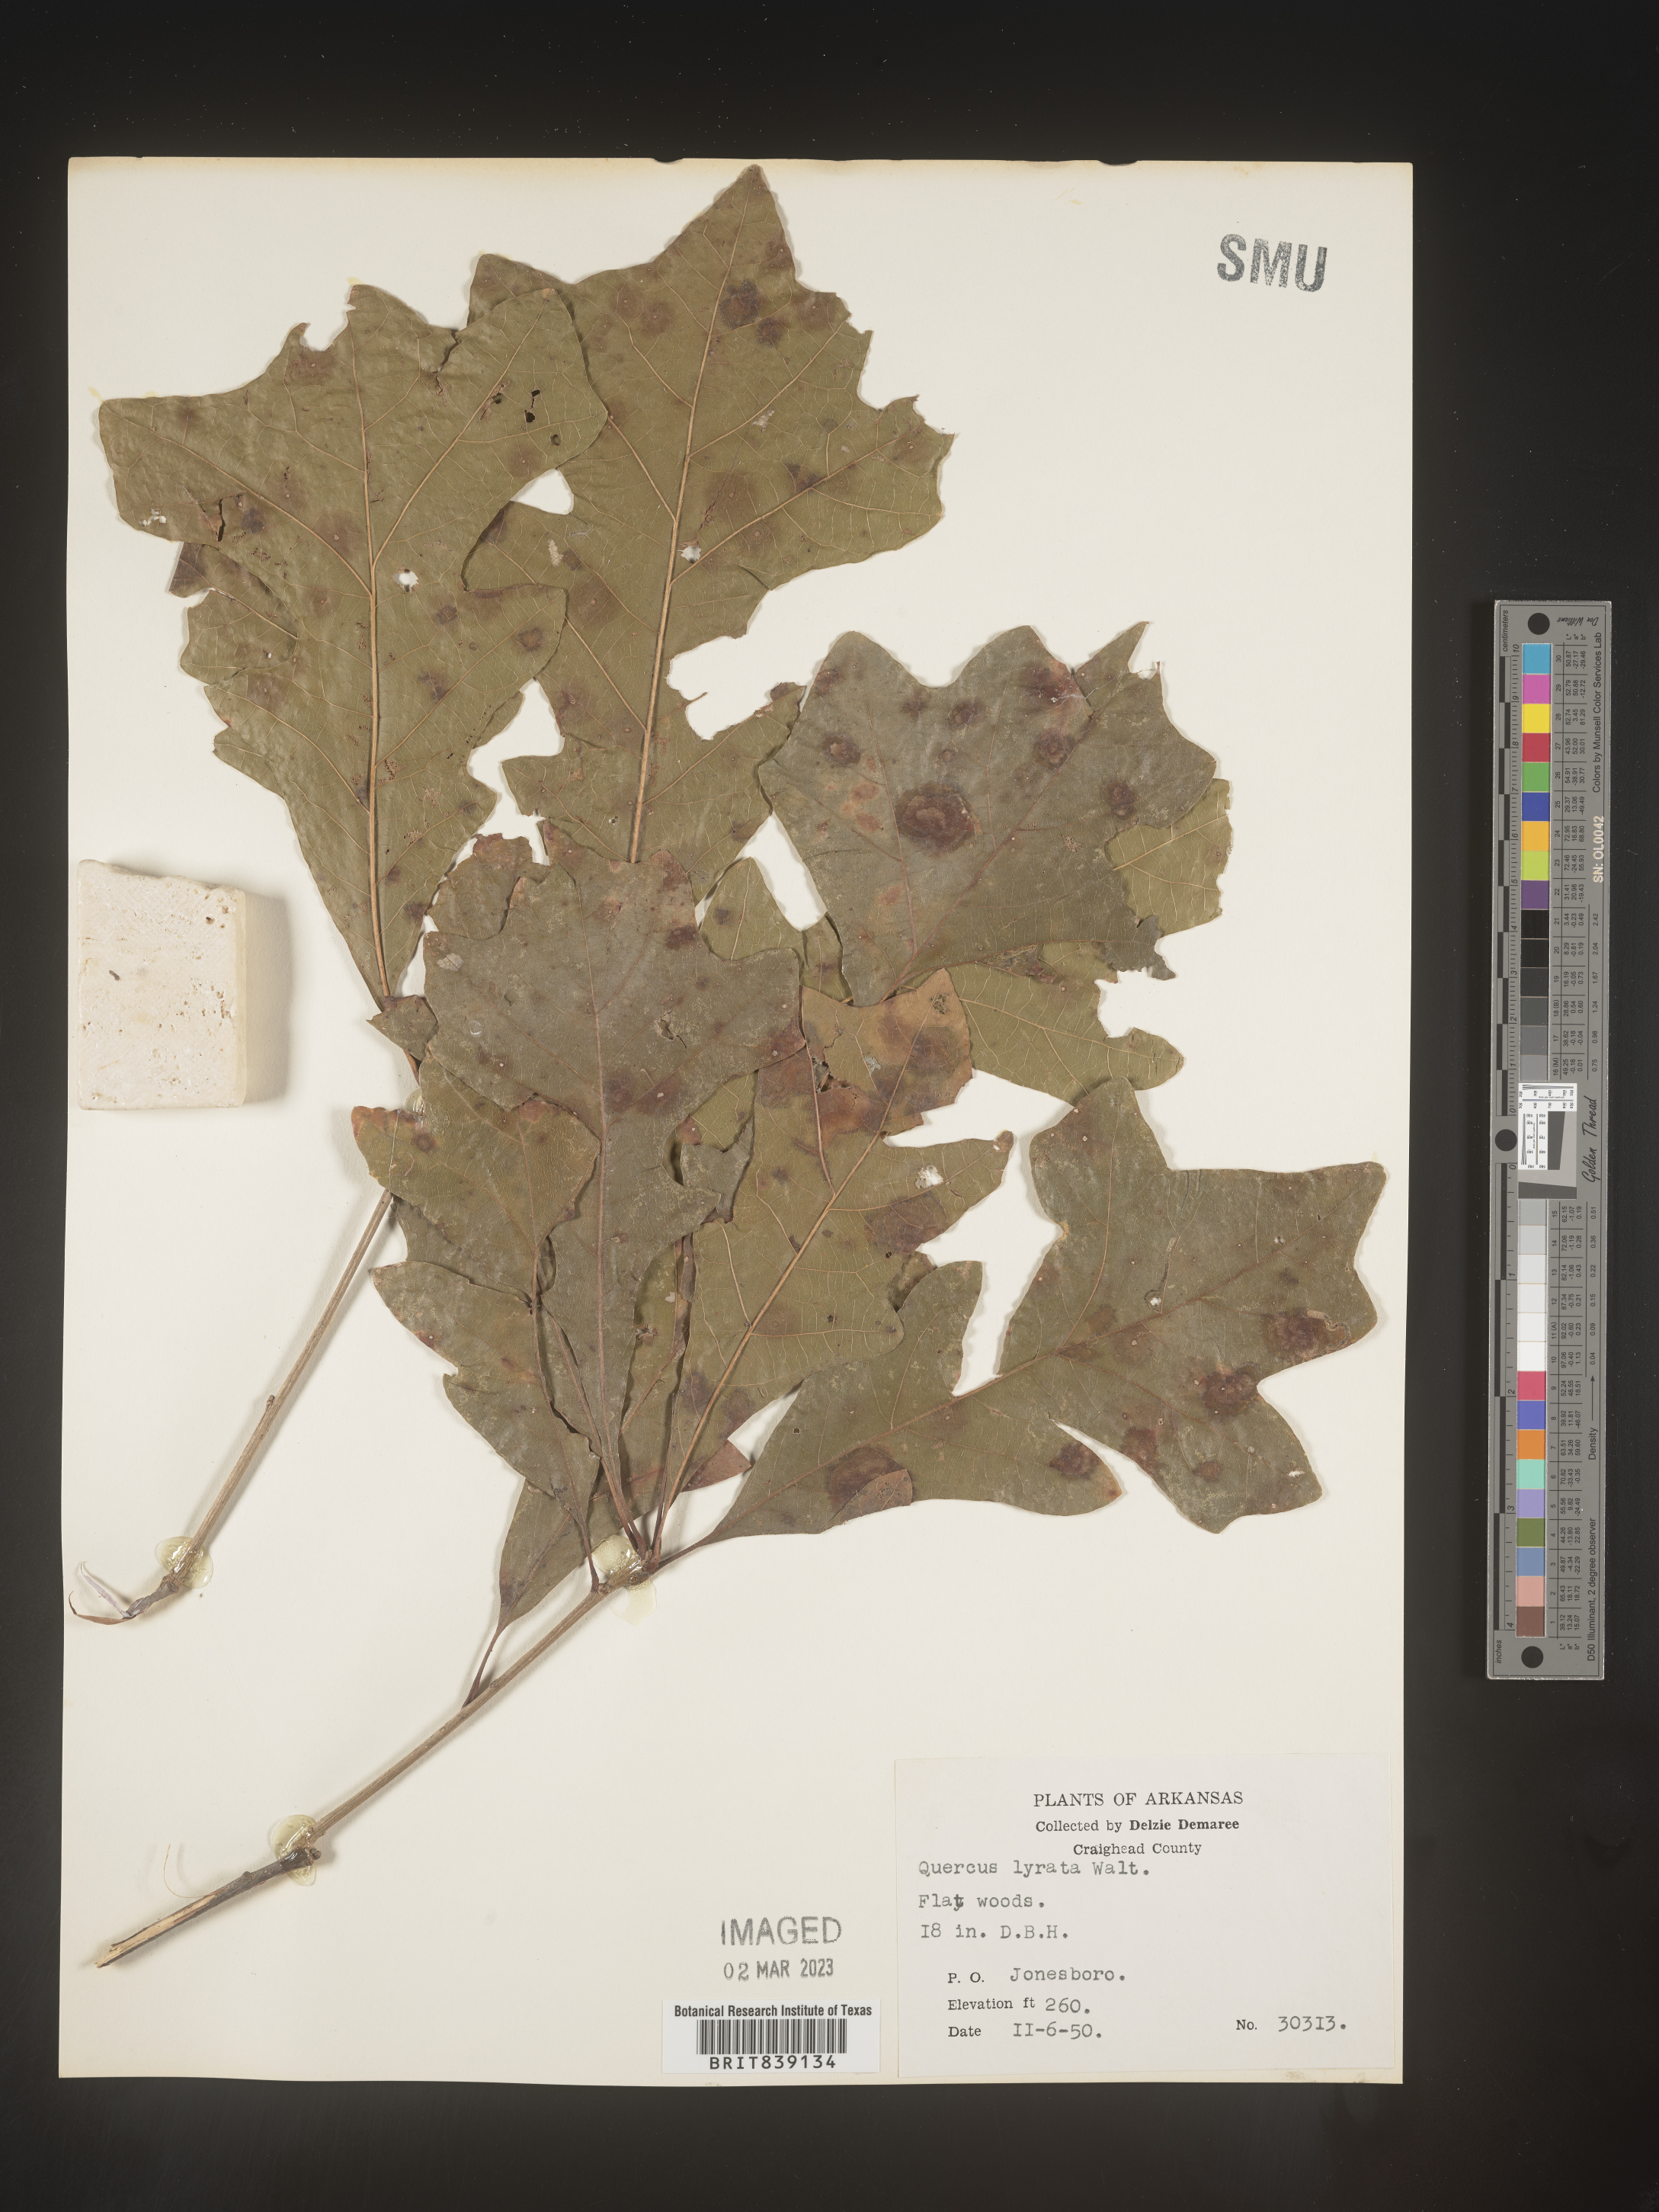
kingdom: Plantae
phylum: Tracheophyta
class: Magnoliopsida
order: Fagales
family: Fagaceae
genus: Quercus
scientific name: Quercus lyrata
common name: Overcup oak
